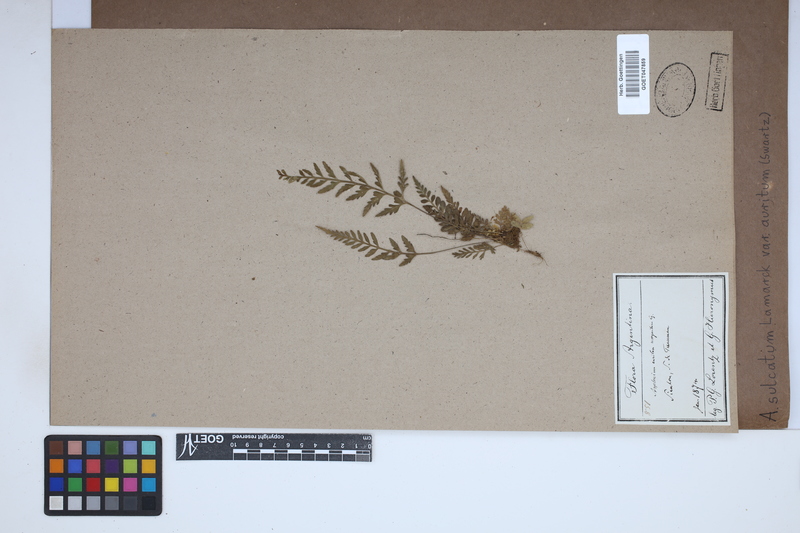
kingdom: Plantae
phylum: Tracheophyta
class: Polypodiopsida
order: Polypodiales
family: Aspleniaceae
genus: Asplenium
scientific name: Asplenium auritum
